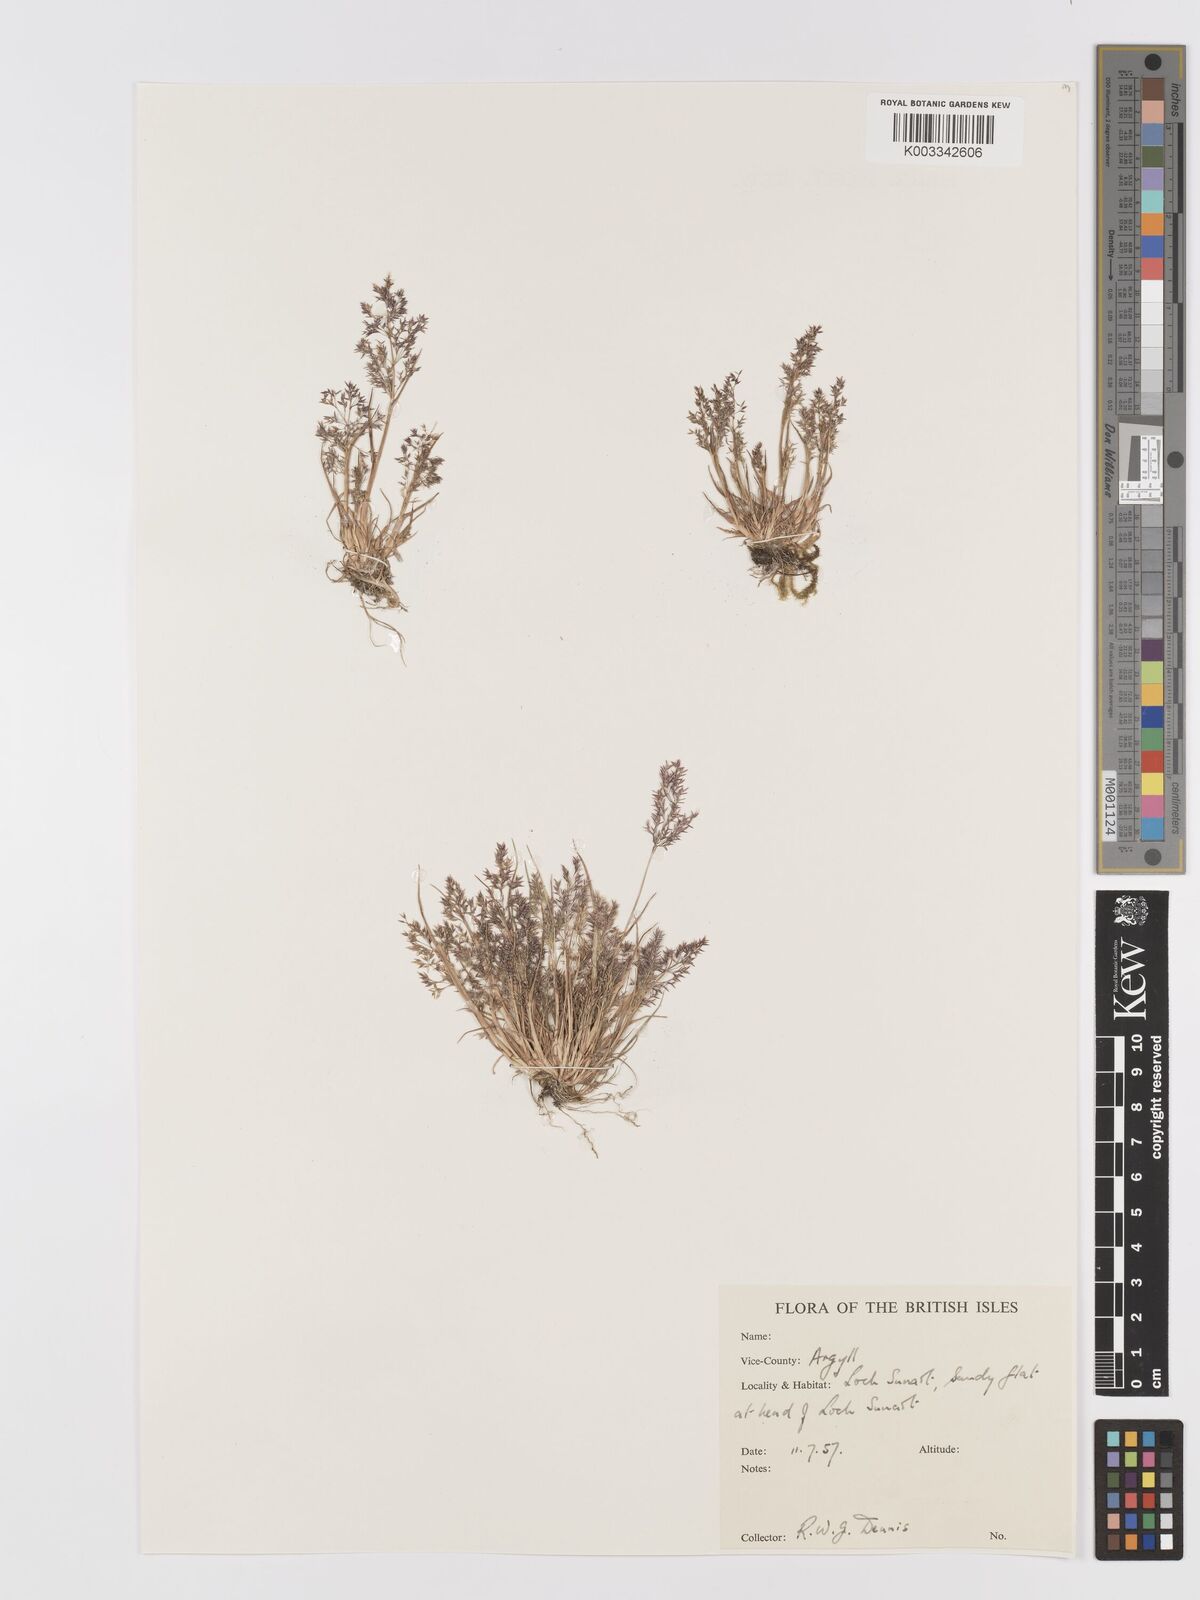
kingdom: Plantae
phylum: Tracheophyta
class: Liliopsida
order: Poales
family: Poaceae
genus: Agrostis
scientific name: Agrostis
